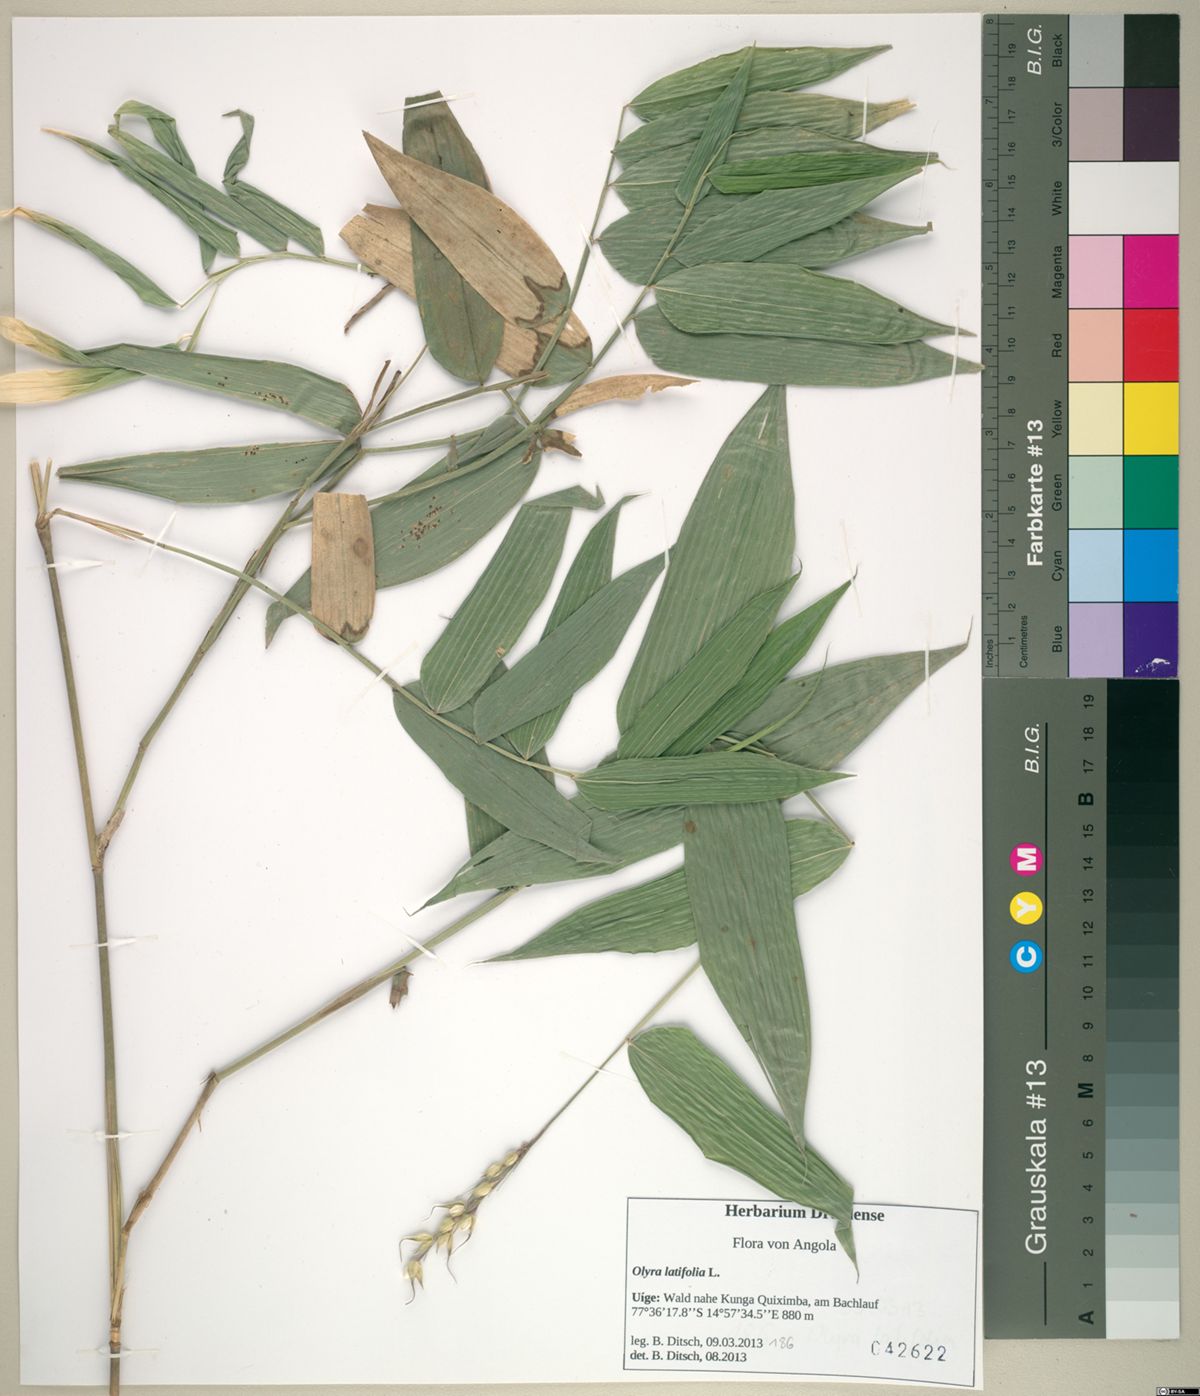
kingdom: Plantae
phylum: Tracheophyta
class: Liliopsida
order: Poales
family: Poaceae
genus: Olyra
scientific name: Olyra latifolia
